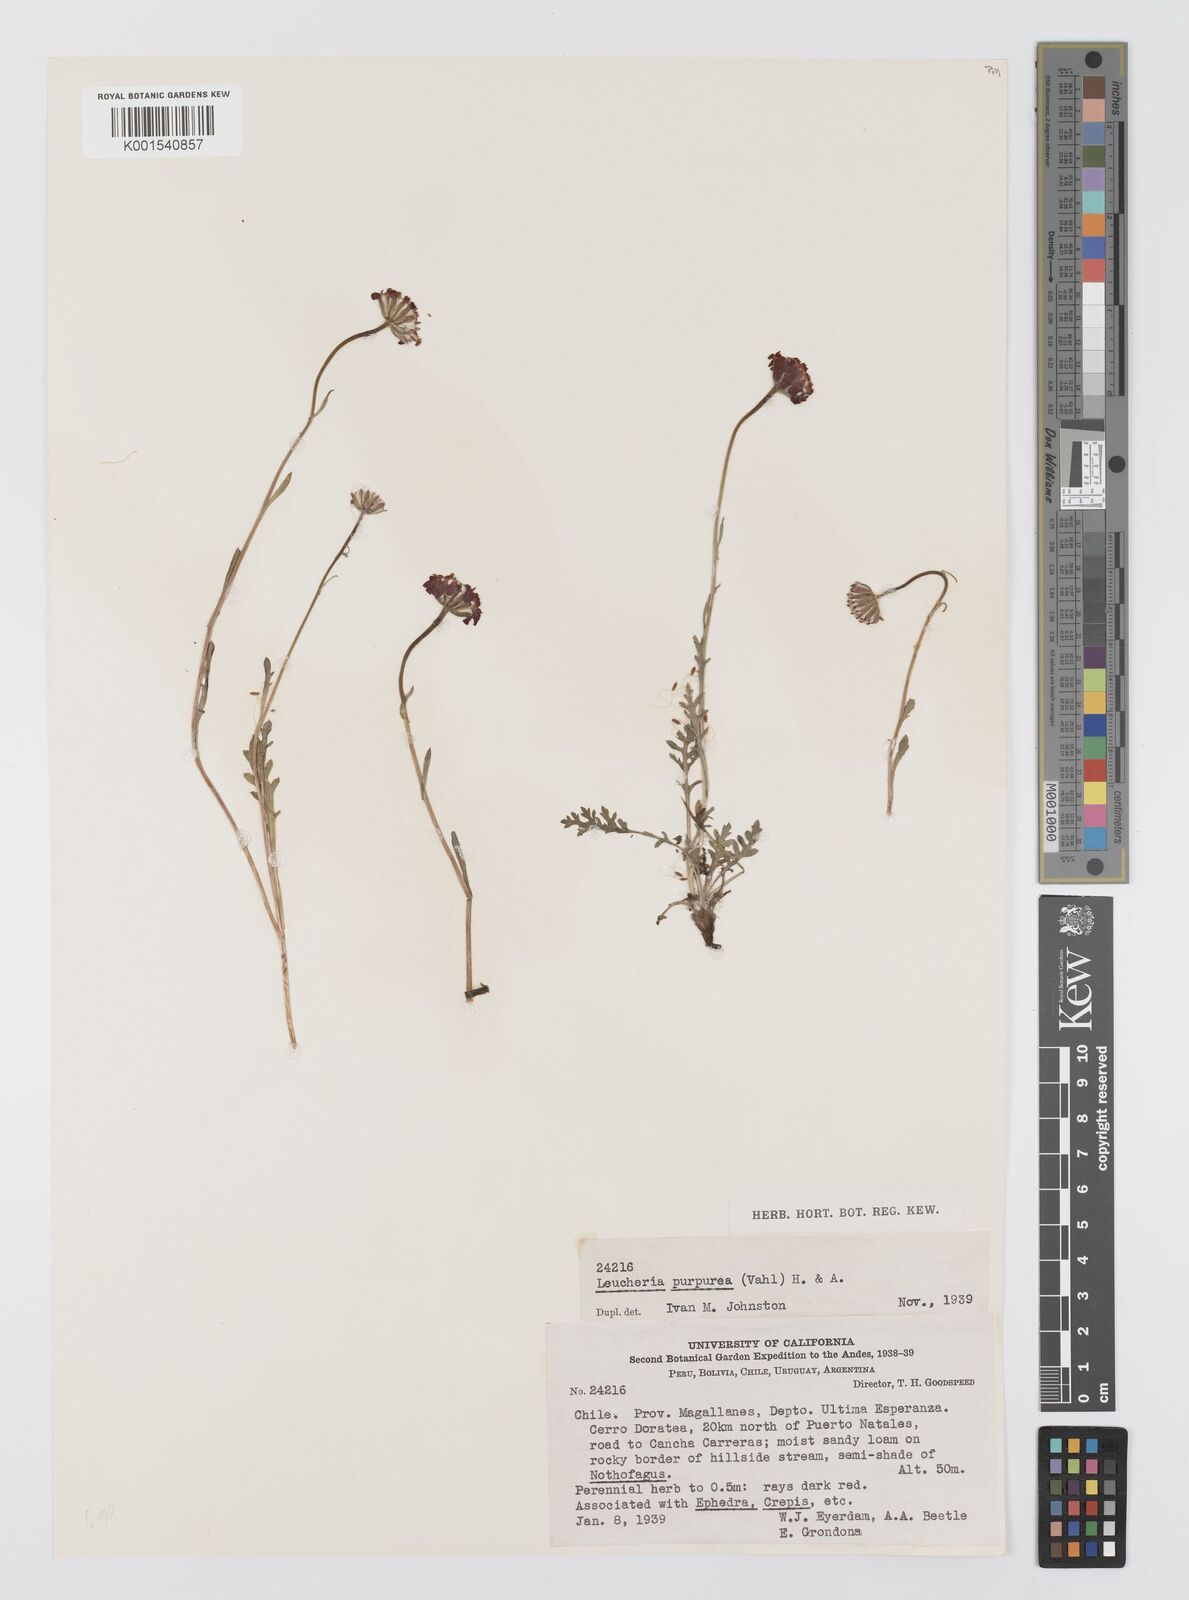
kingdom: Plantae
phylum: Tracheophyta
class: Magnoliopsida
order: Asterales
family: Asteraceae
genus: Leucheria
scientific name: Leucheria purpurea
